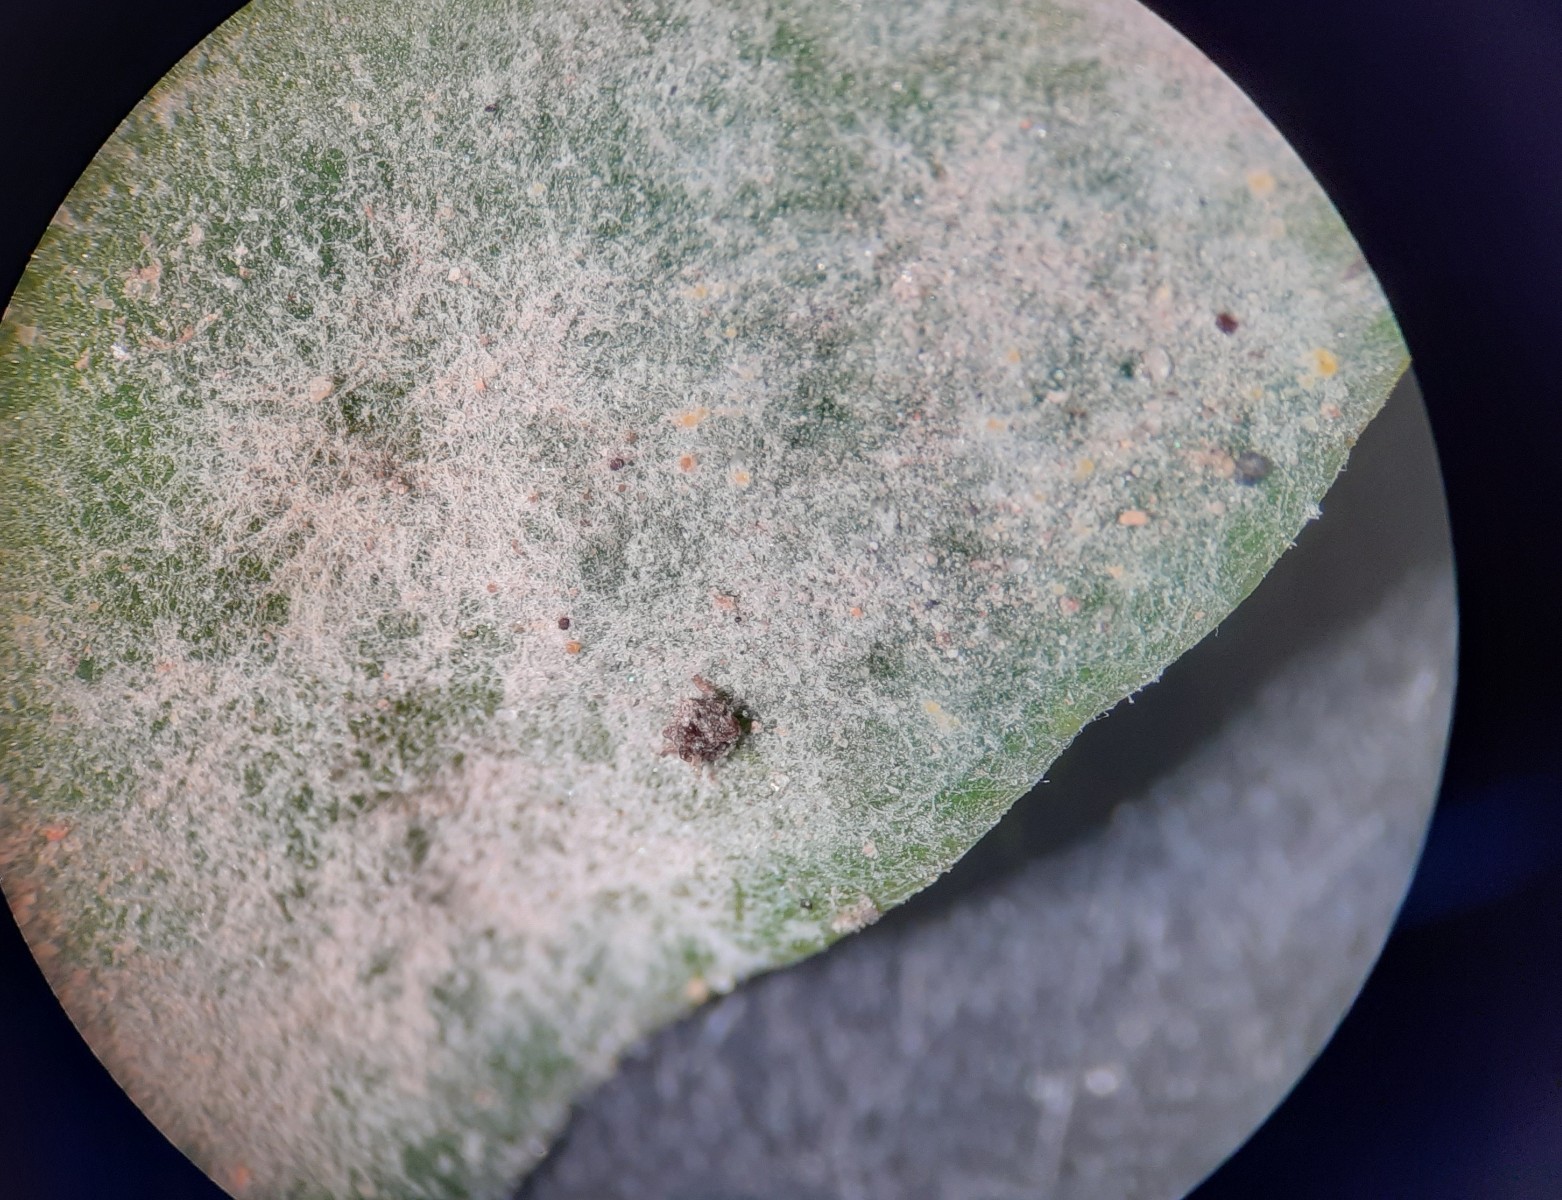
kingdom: Fungi
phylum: Ascomycota
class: Leotiomycetes
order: Helotiales
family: Erysiphaceae
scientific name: Erysiphaceae
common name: meldugfamilien
